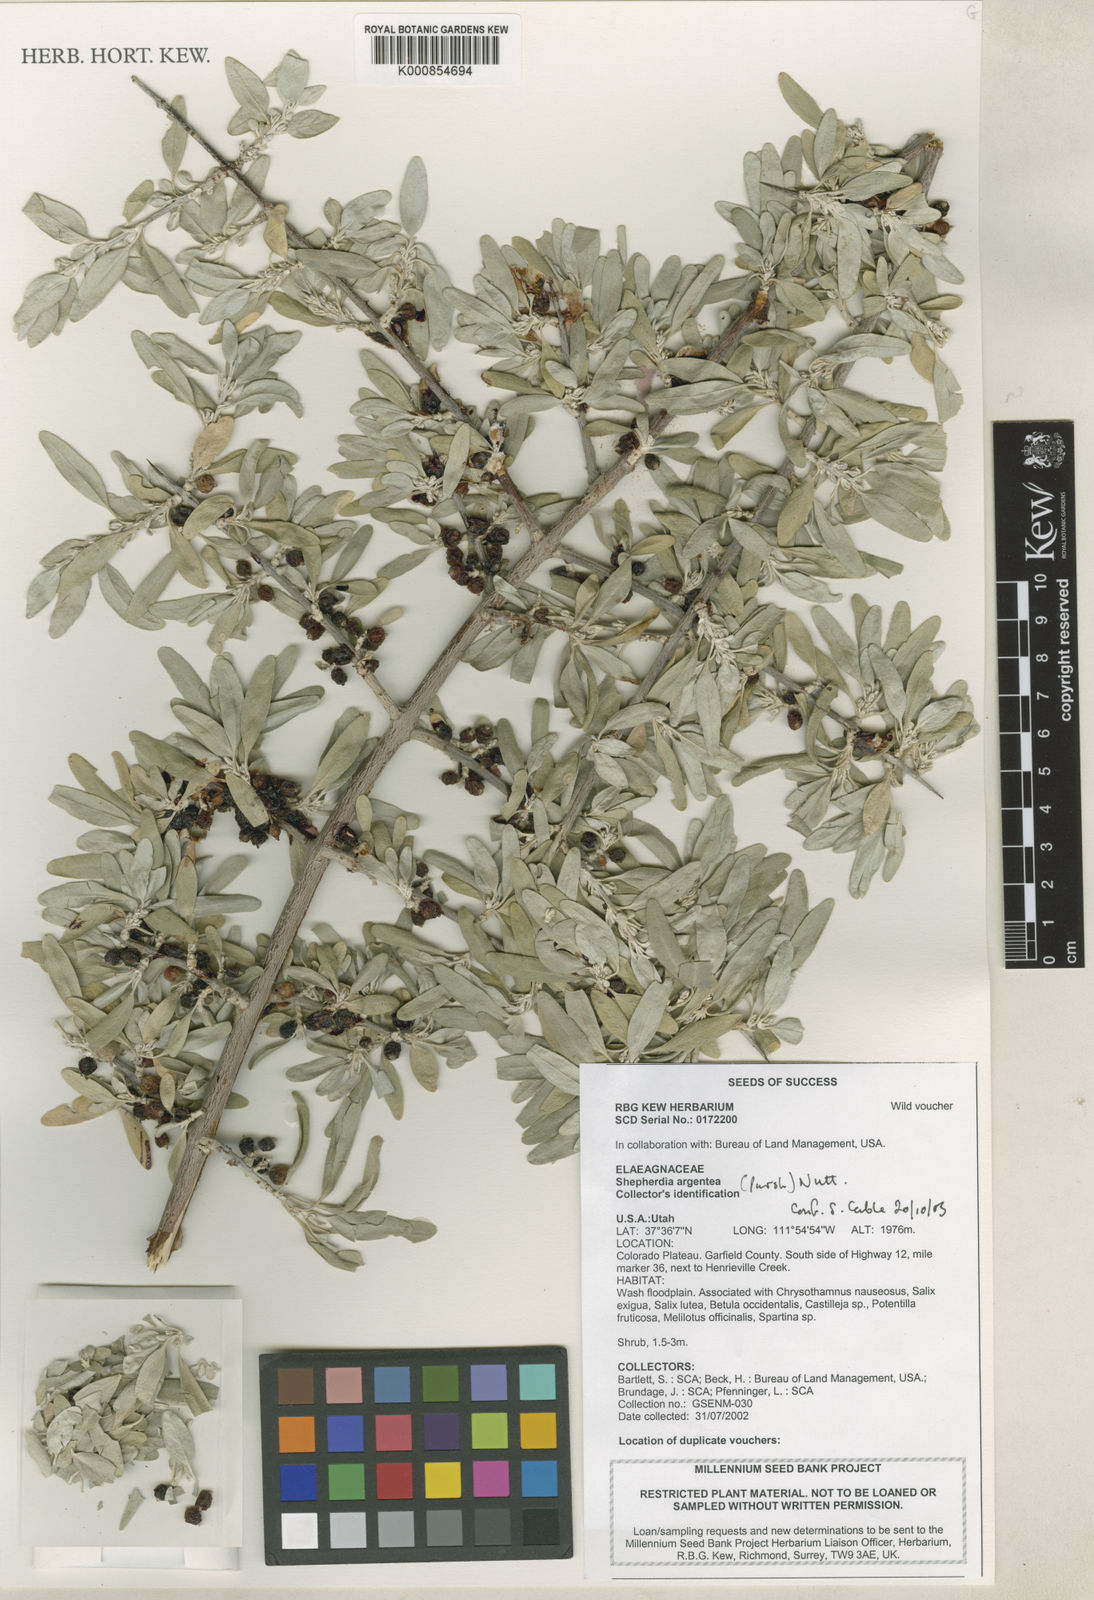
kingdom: Plantae
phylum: Tracheophyta
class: Magnoliopsida
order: Rosales
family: Elaeagnaceae
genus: Shepherdia
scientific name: Shepherdia argentea
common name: Silver buffaloberry
